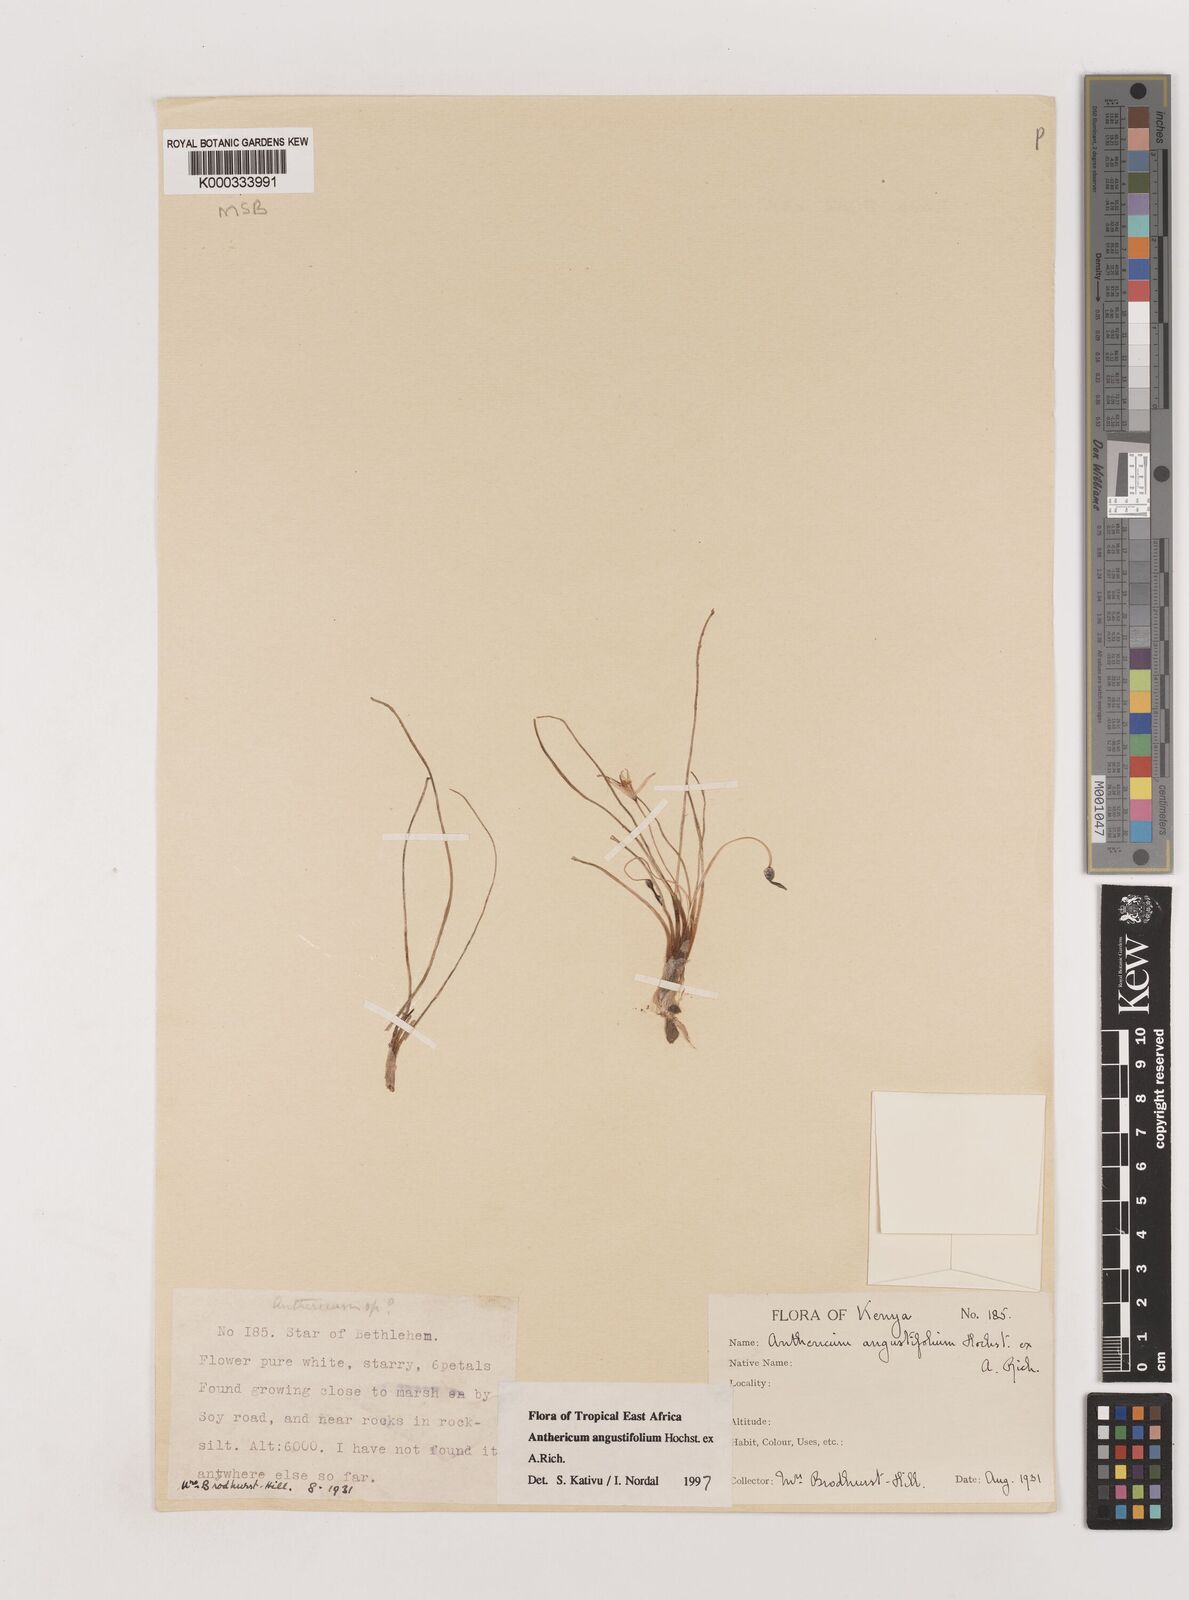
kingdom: Plantae
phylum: Tracheophyta
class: Liliopsida
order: Asparagales
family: Asparagaceae
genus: Anthericum
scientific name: Anthericum angustifolium
